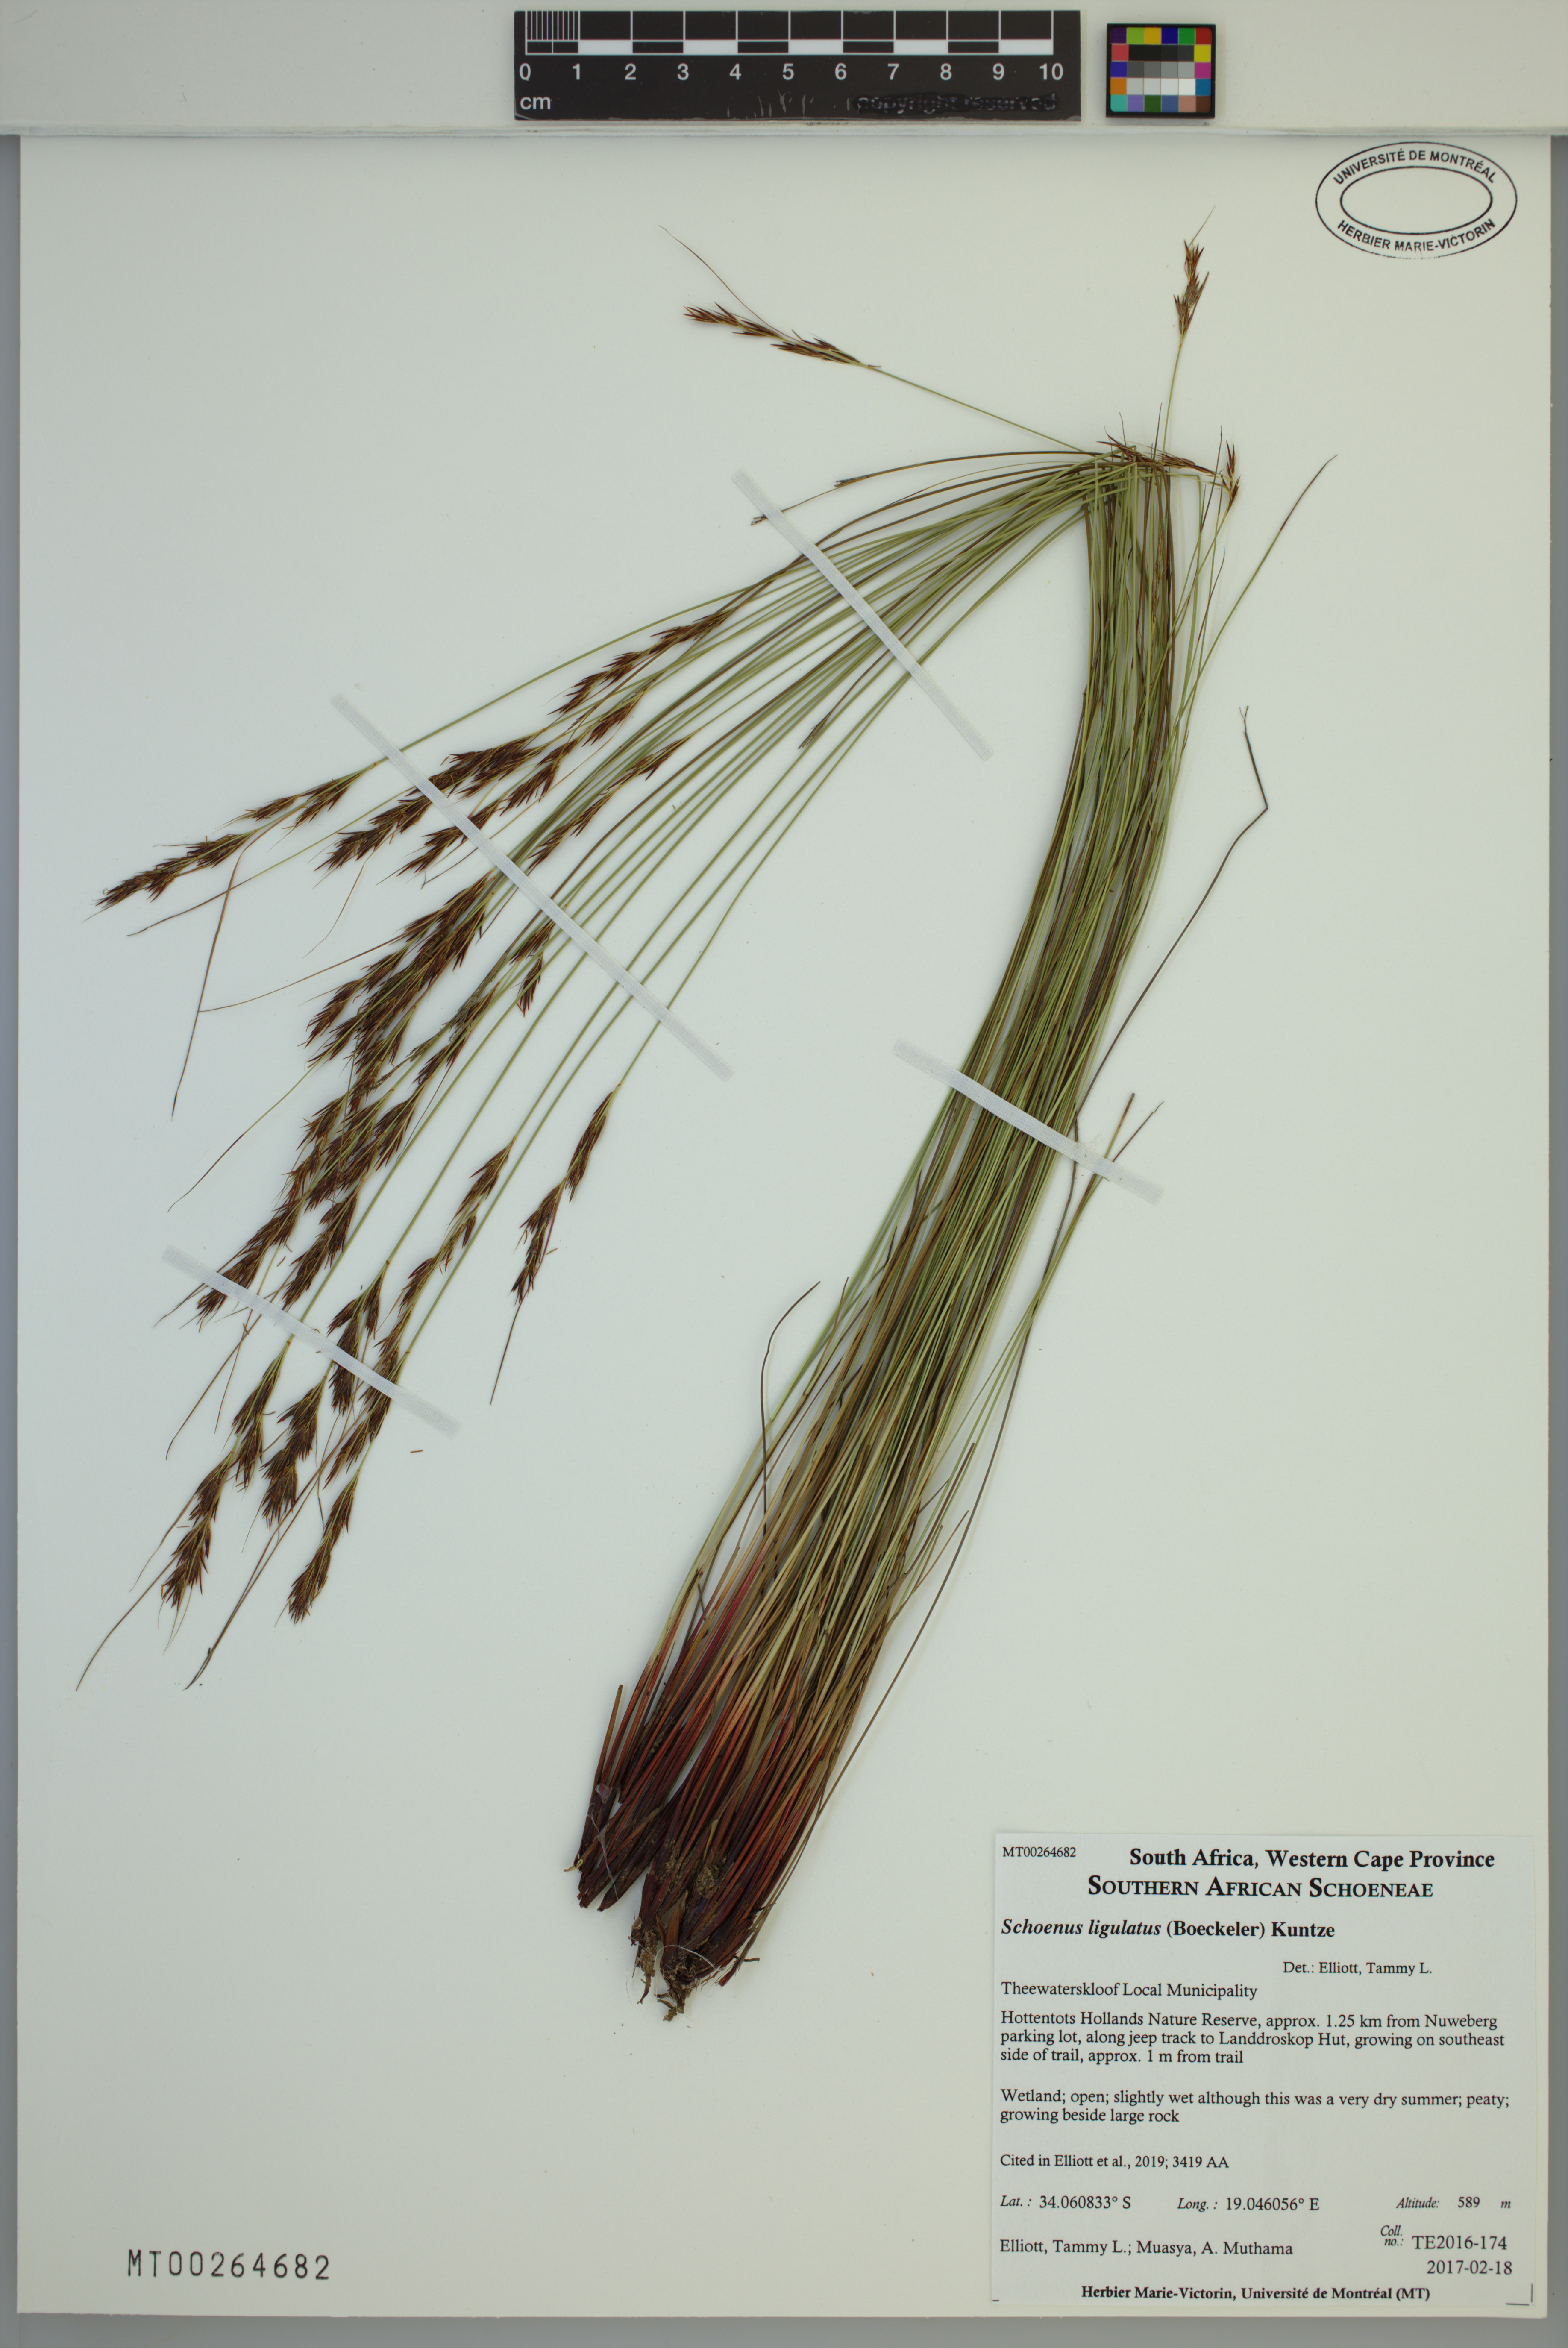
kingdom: Plantae
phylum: Tracheophyta
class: Liliopsida
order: Poales
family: Cyperaceae
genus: Schoenus
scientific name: Schoenus ligulatus
